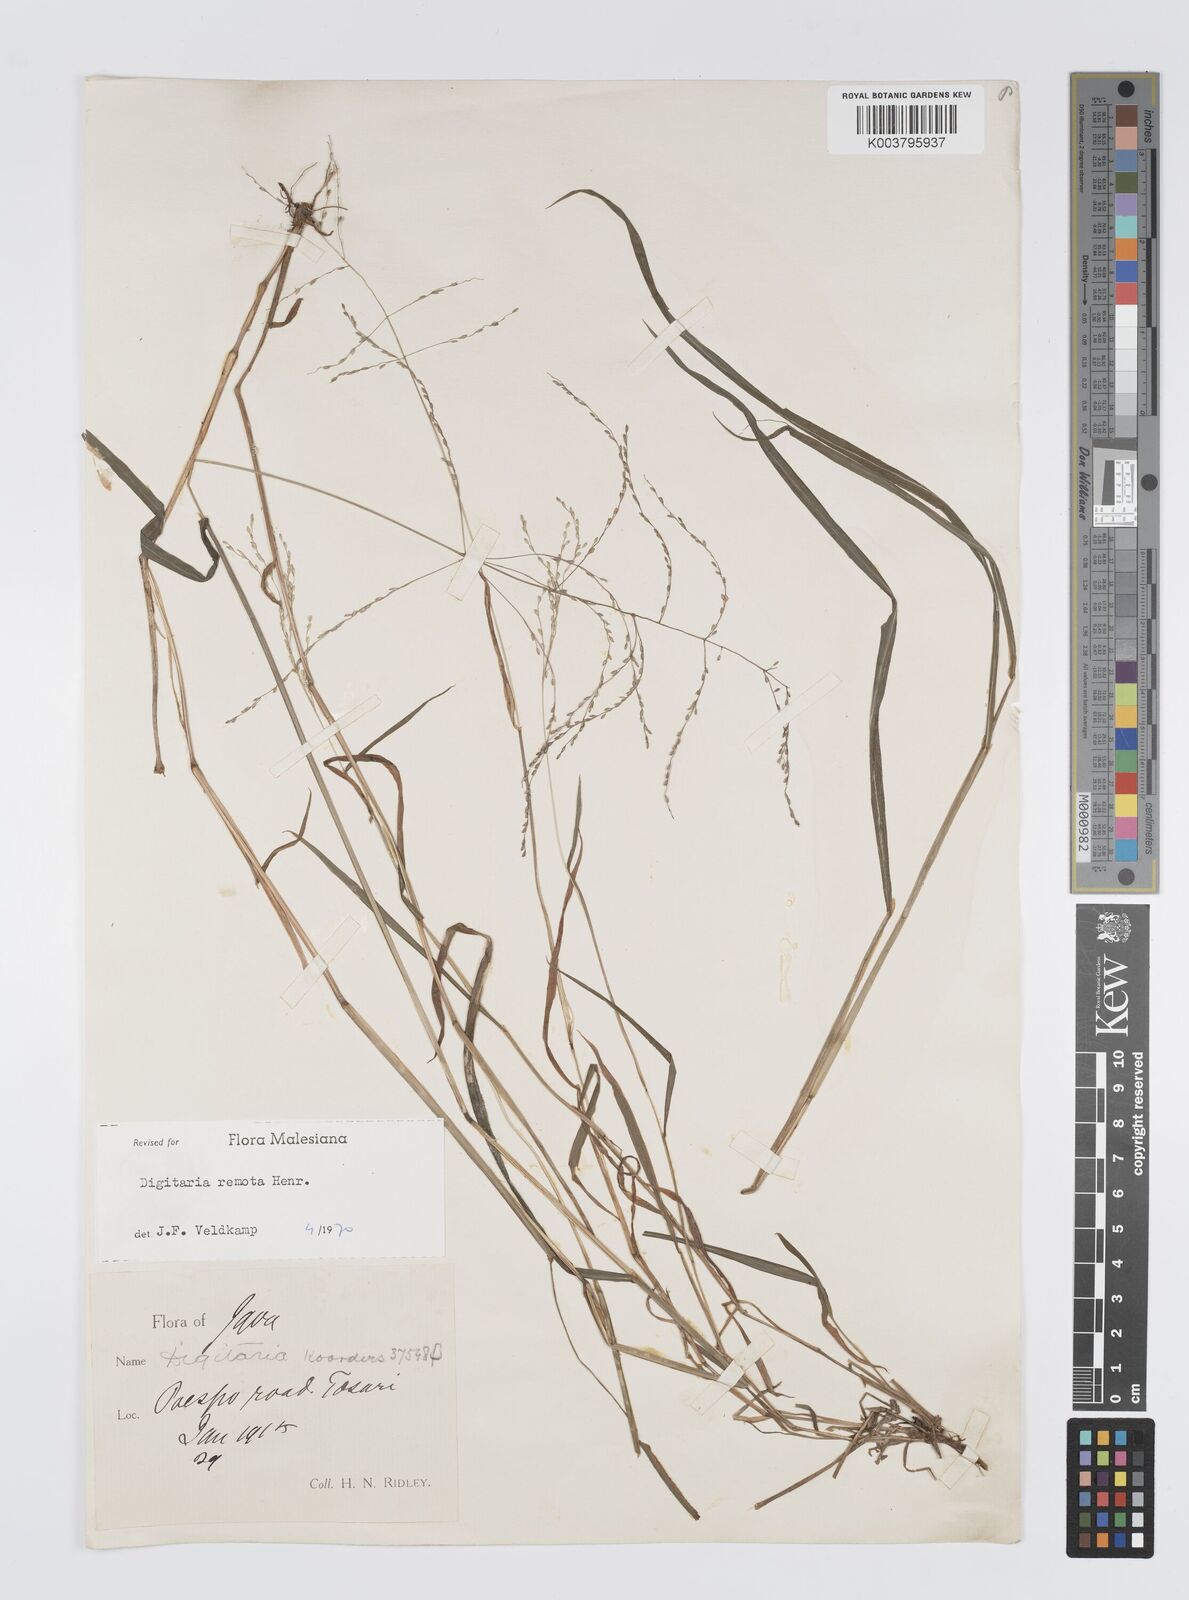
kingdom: Plantae
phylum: Tracheophyta
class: Liliopsida
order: Poales
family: Poaceae
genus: Digitaria
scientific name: Digitaria wallichiana
